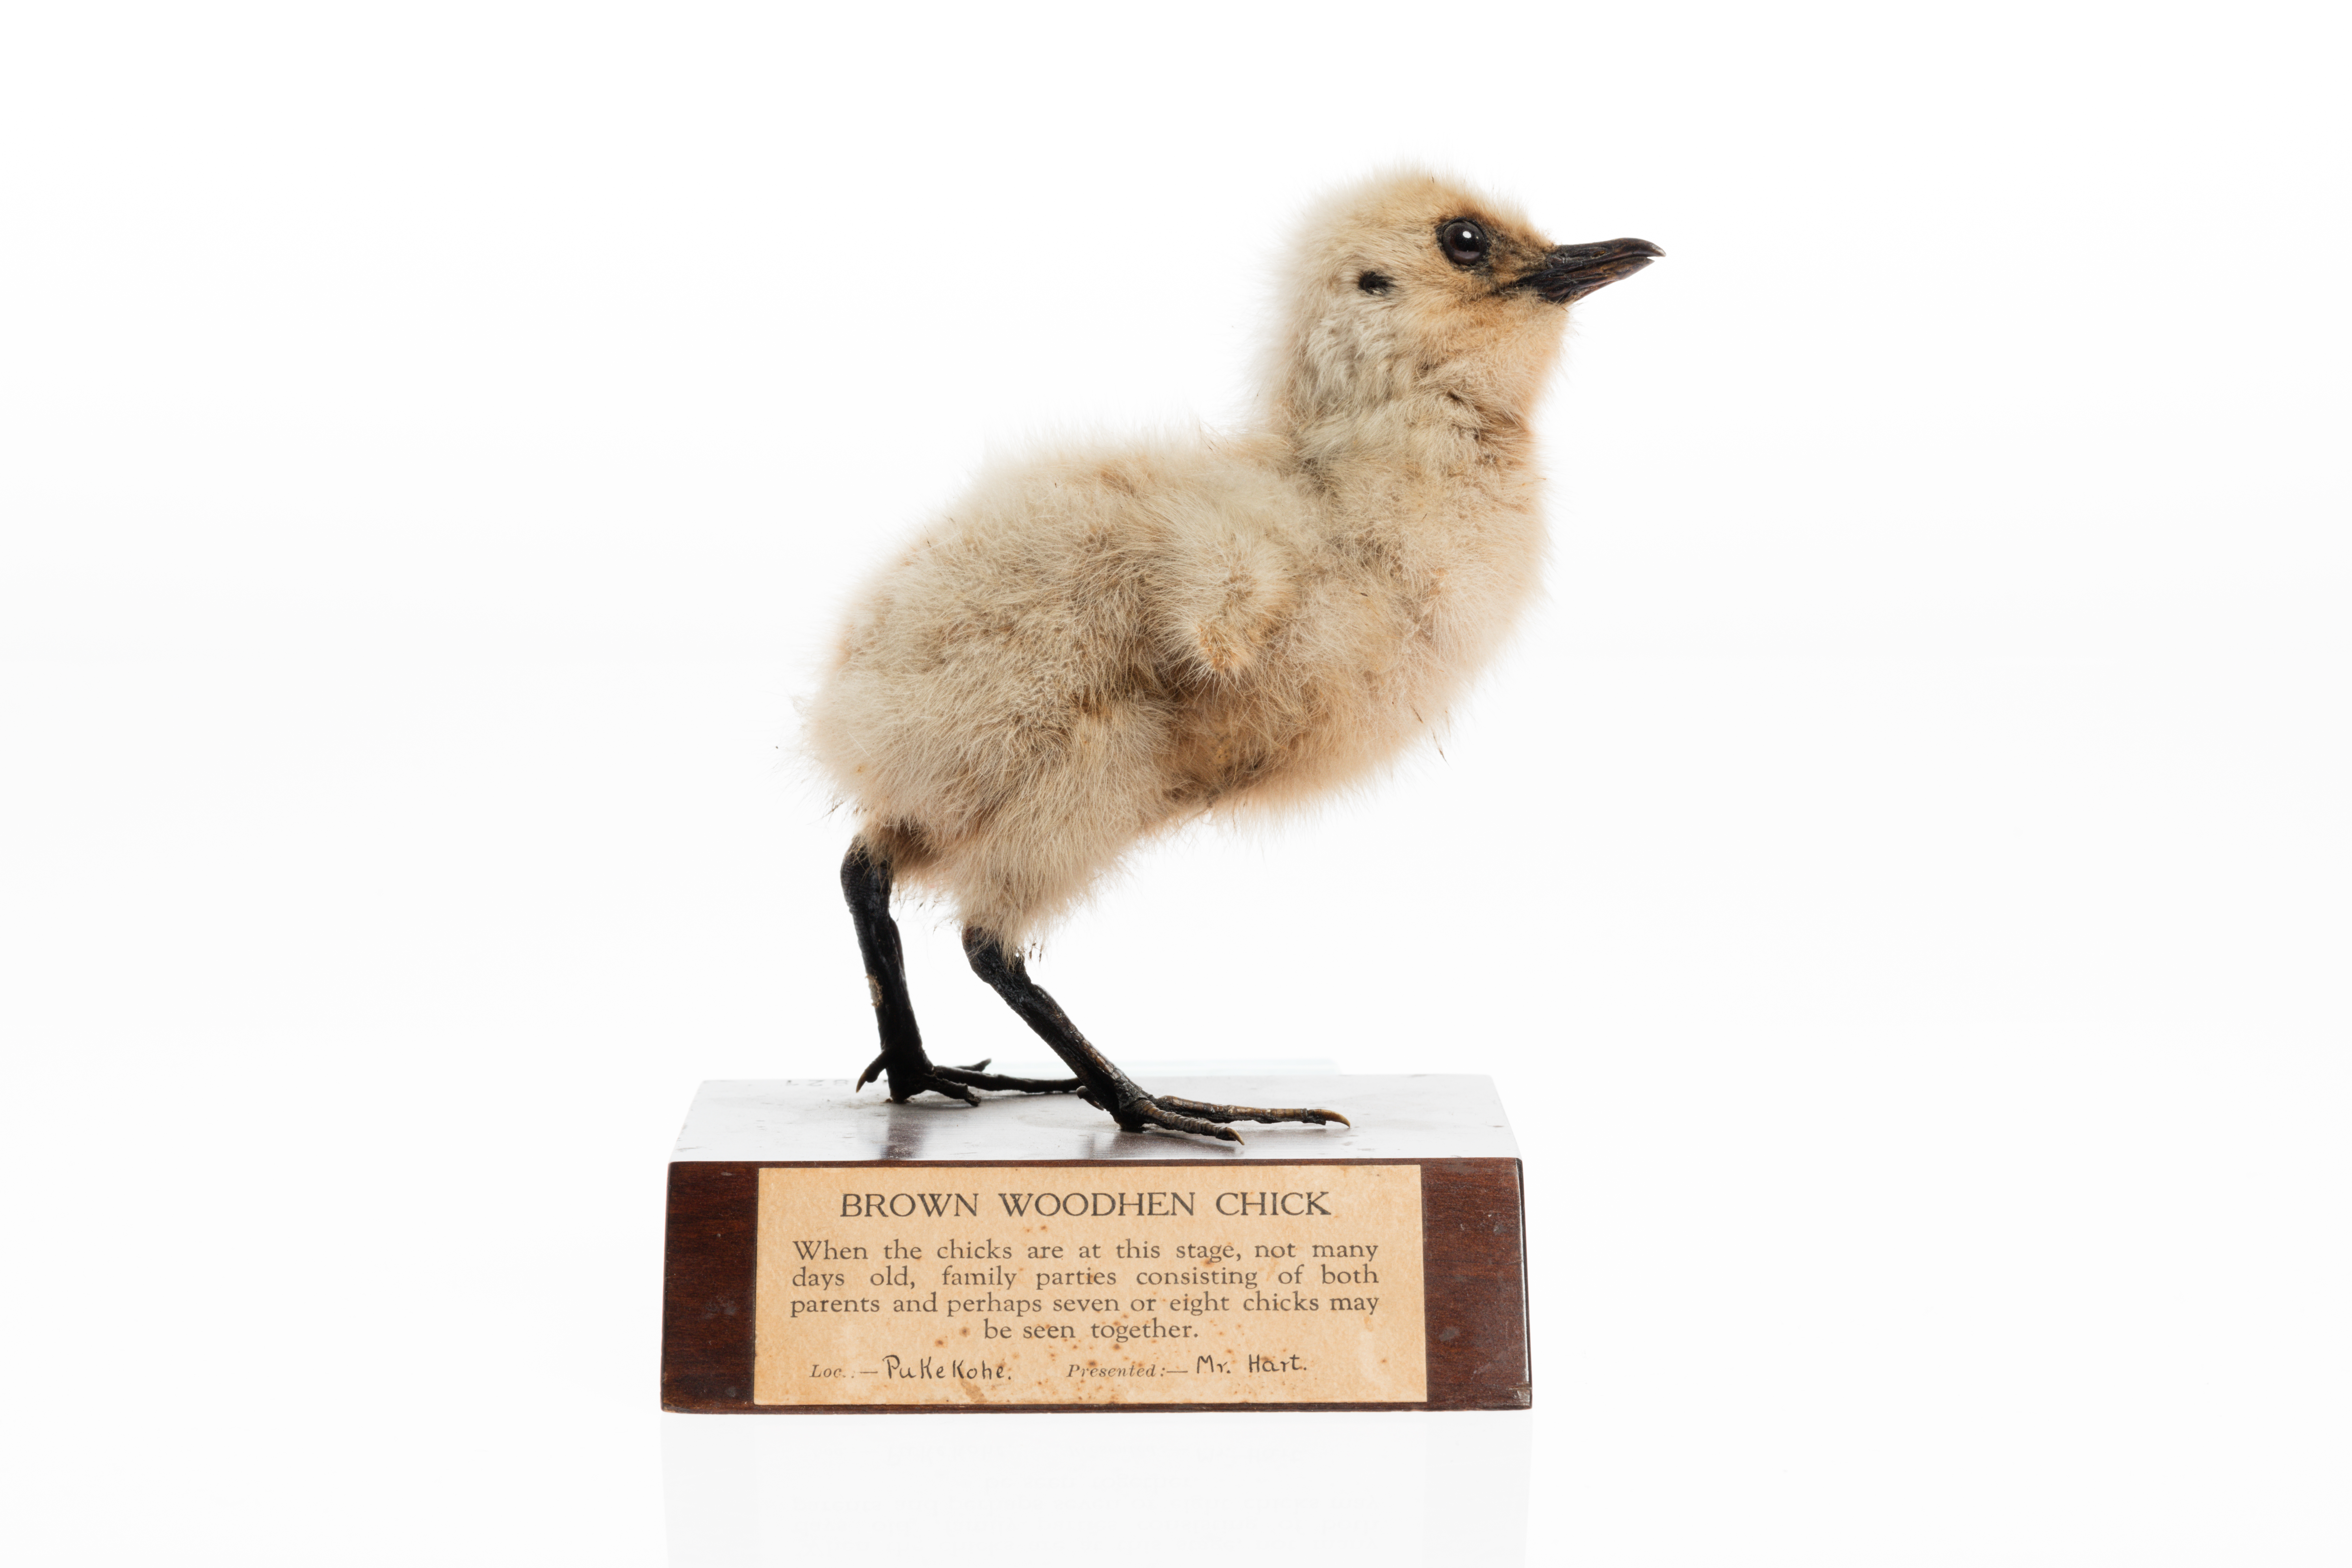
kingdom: Animalia
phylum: Chordata
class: Aves
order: Gruiformes
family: Rallidae
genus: Gallirallus
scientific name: Gallirallus australis
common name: Weka
